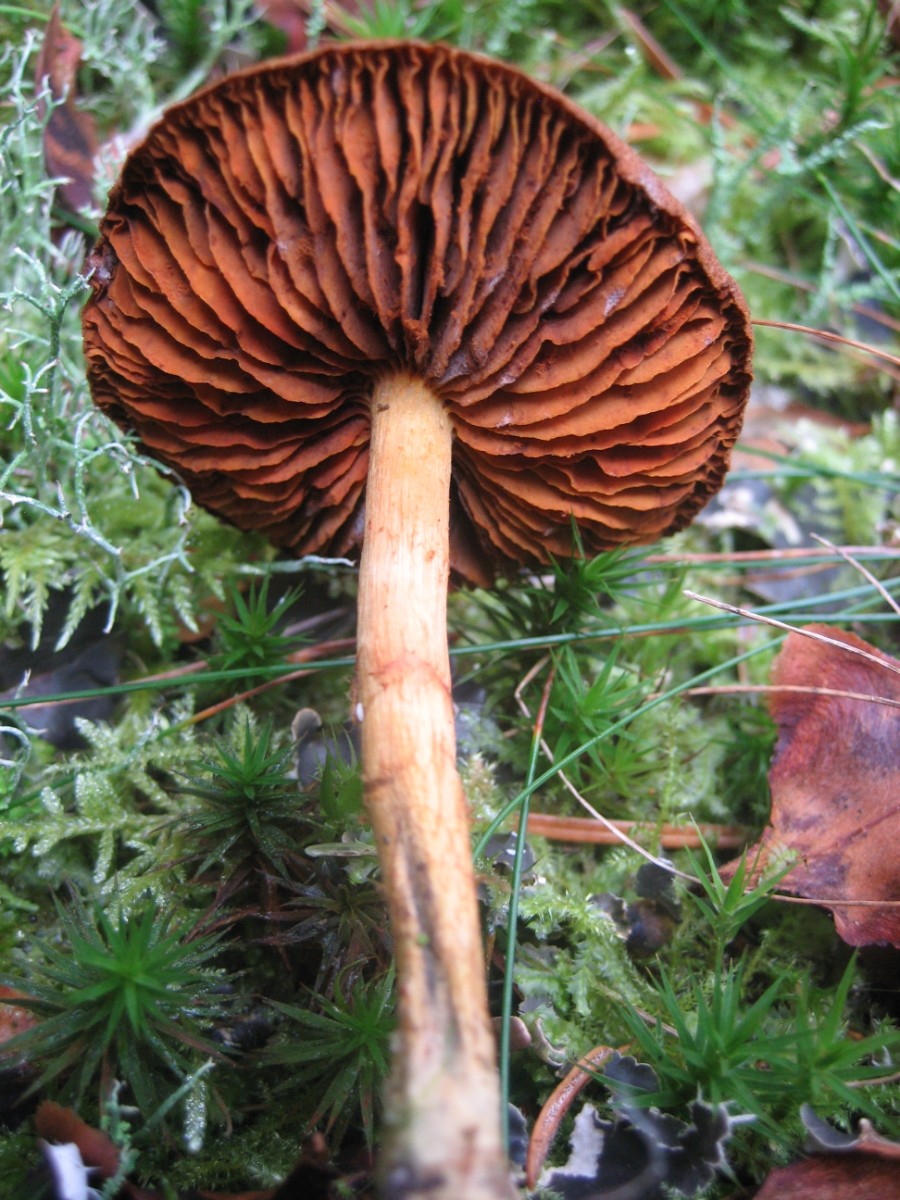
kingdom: Fungi
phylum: Basidiomycota
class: Agaricomycetes
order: Agaricales
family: Cortinariaceae
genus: Cortinarius
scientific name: Cortinarius
